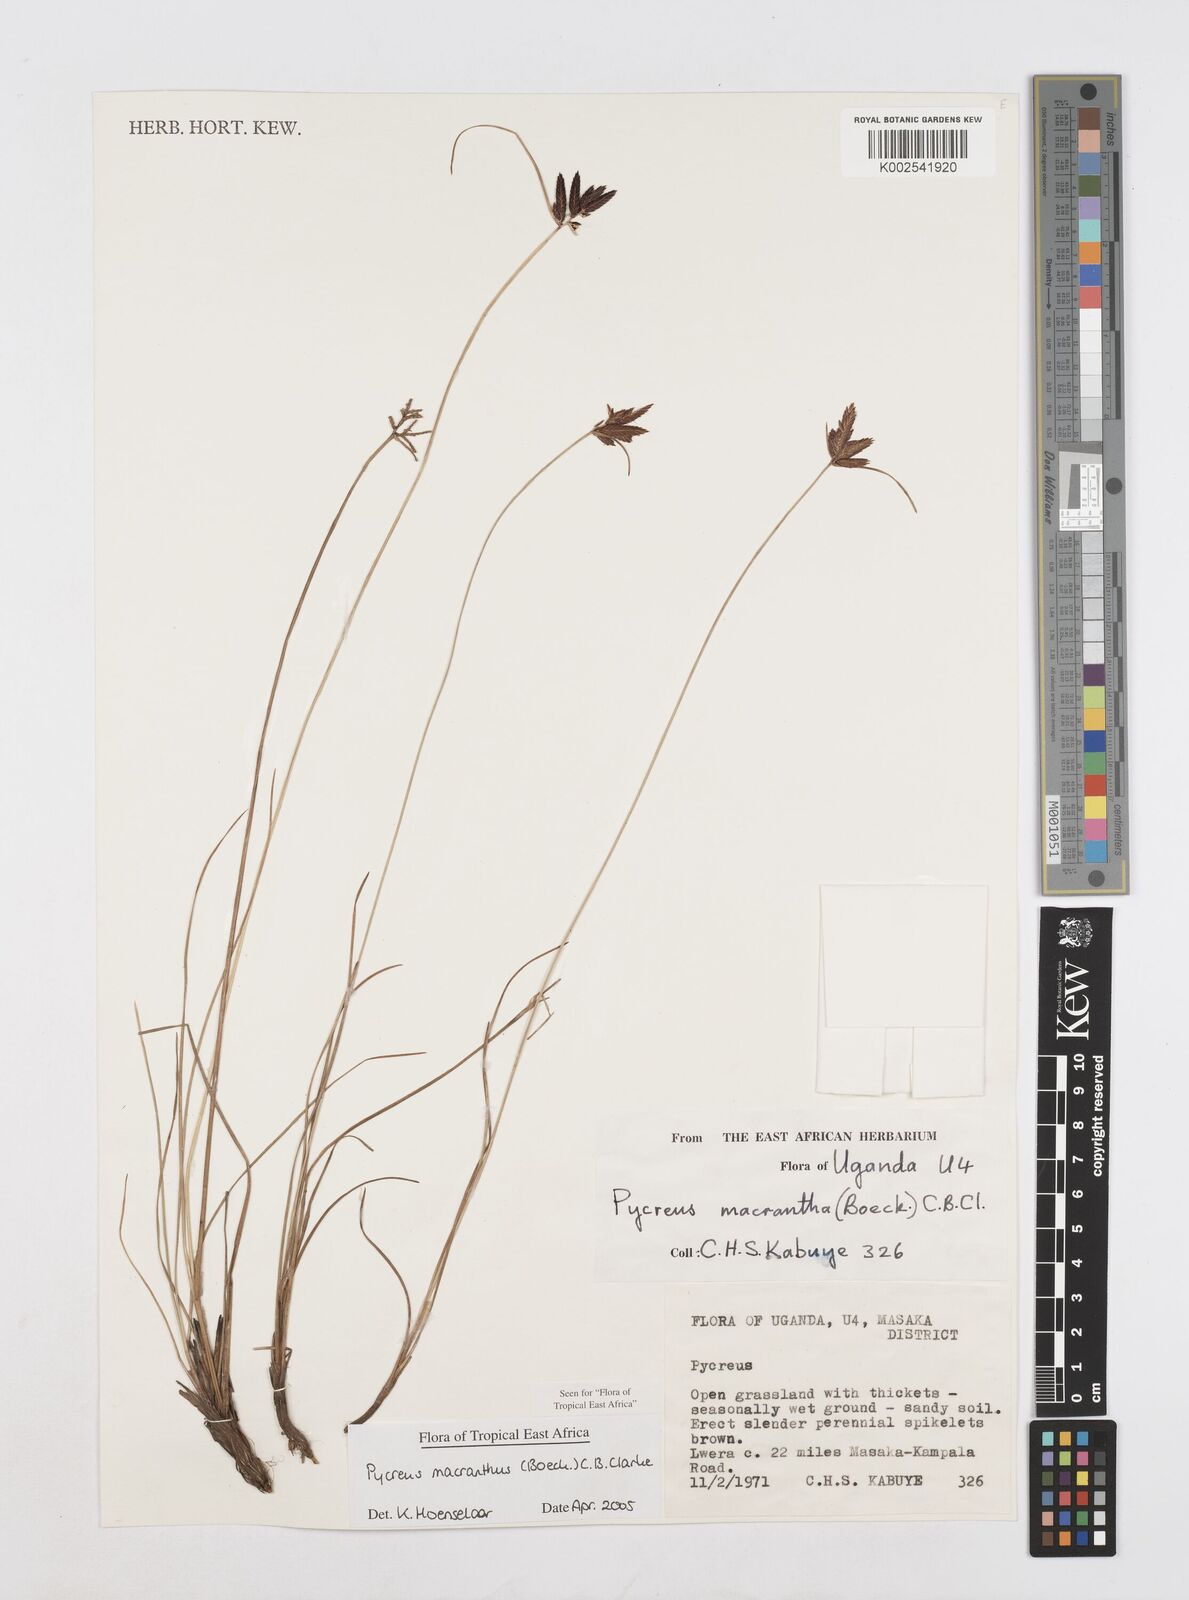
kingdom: Plantae
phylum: Tracheophyta
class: Liliopsida
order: Poales
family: Cyperaceae
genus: Cyperus
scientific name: Cyperus nigricans
